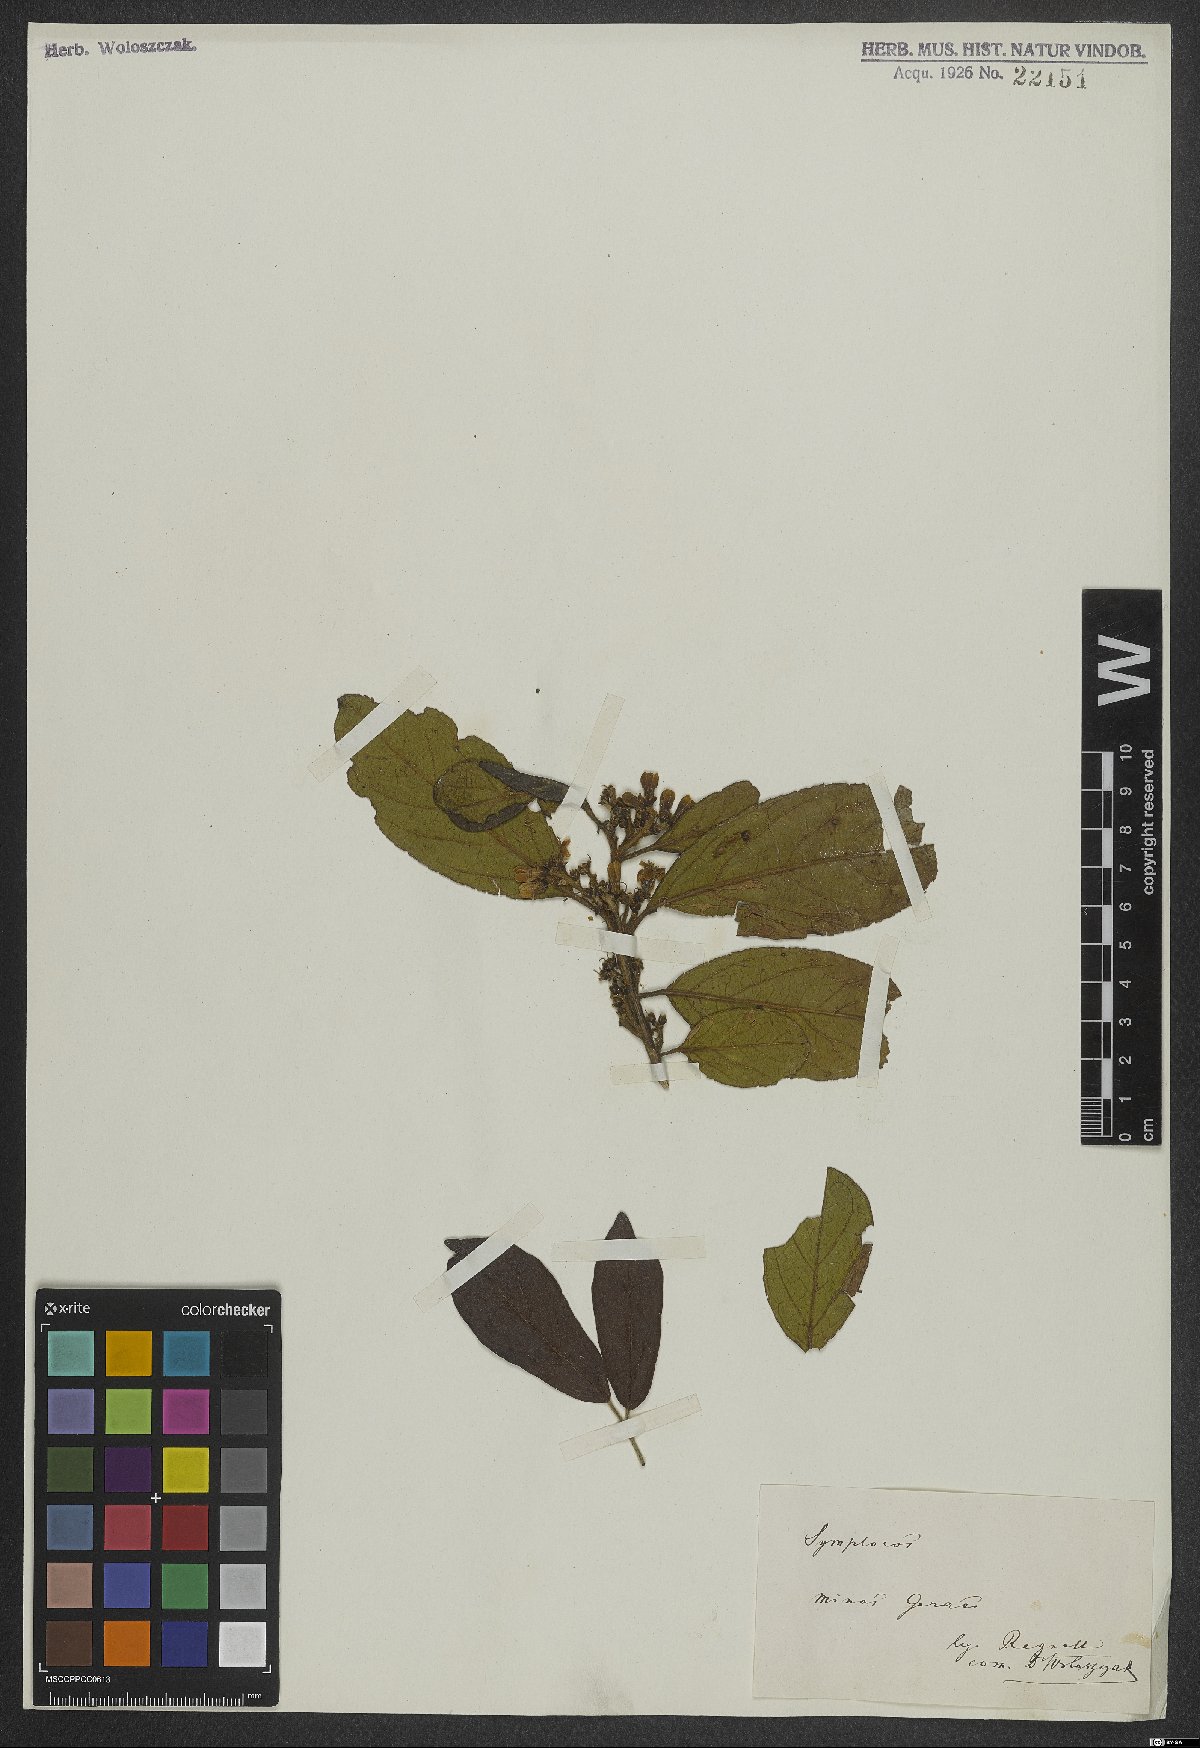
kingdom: Plantae
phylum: Tracheophyta
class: Magnoliopsida
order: Ericales
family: Symplocaceae
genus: Symplocos
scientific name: Symplocos
